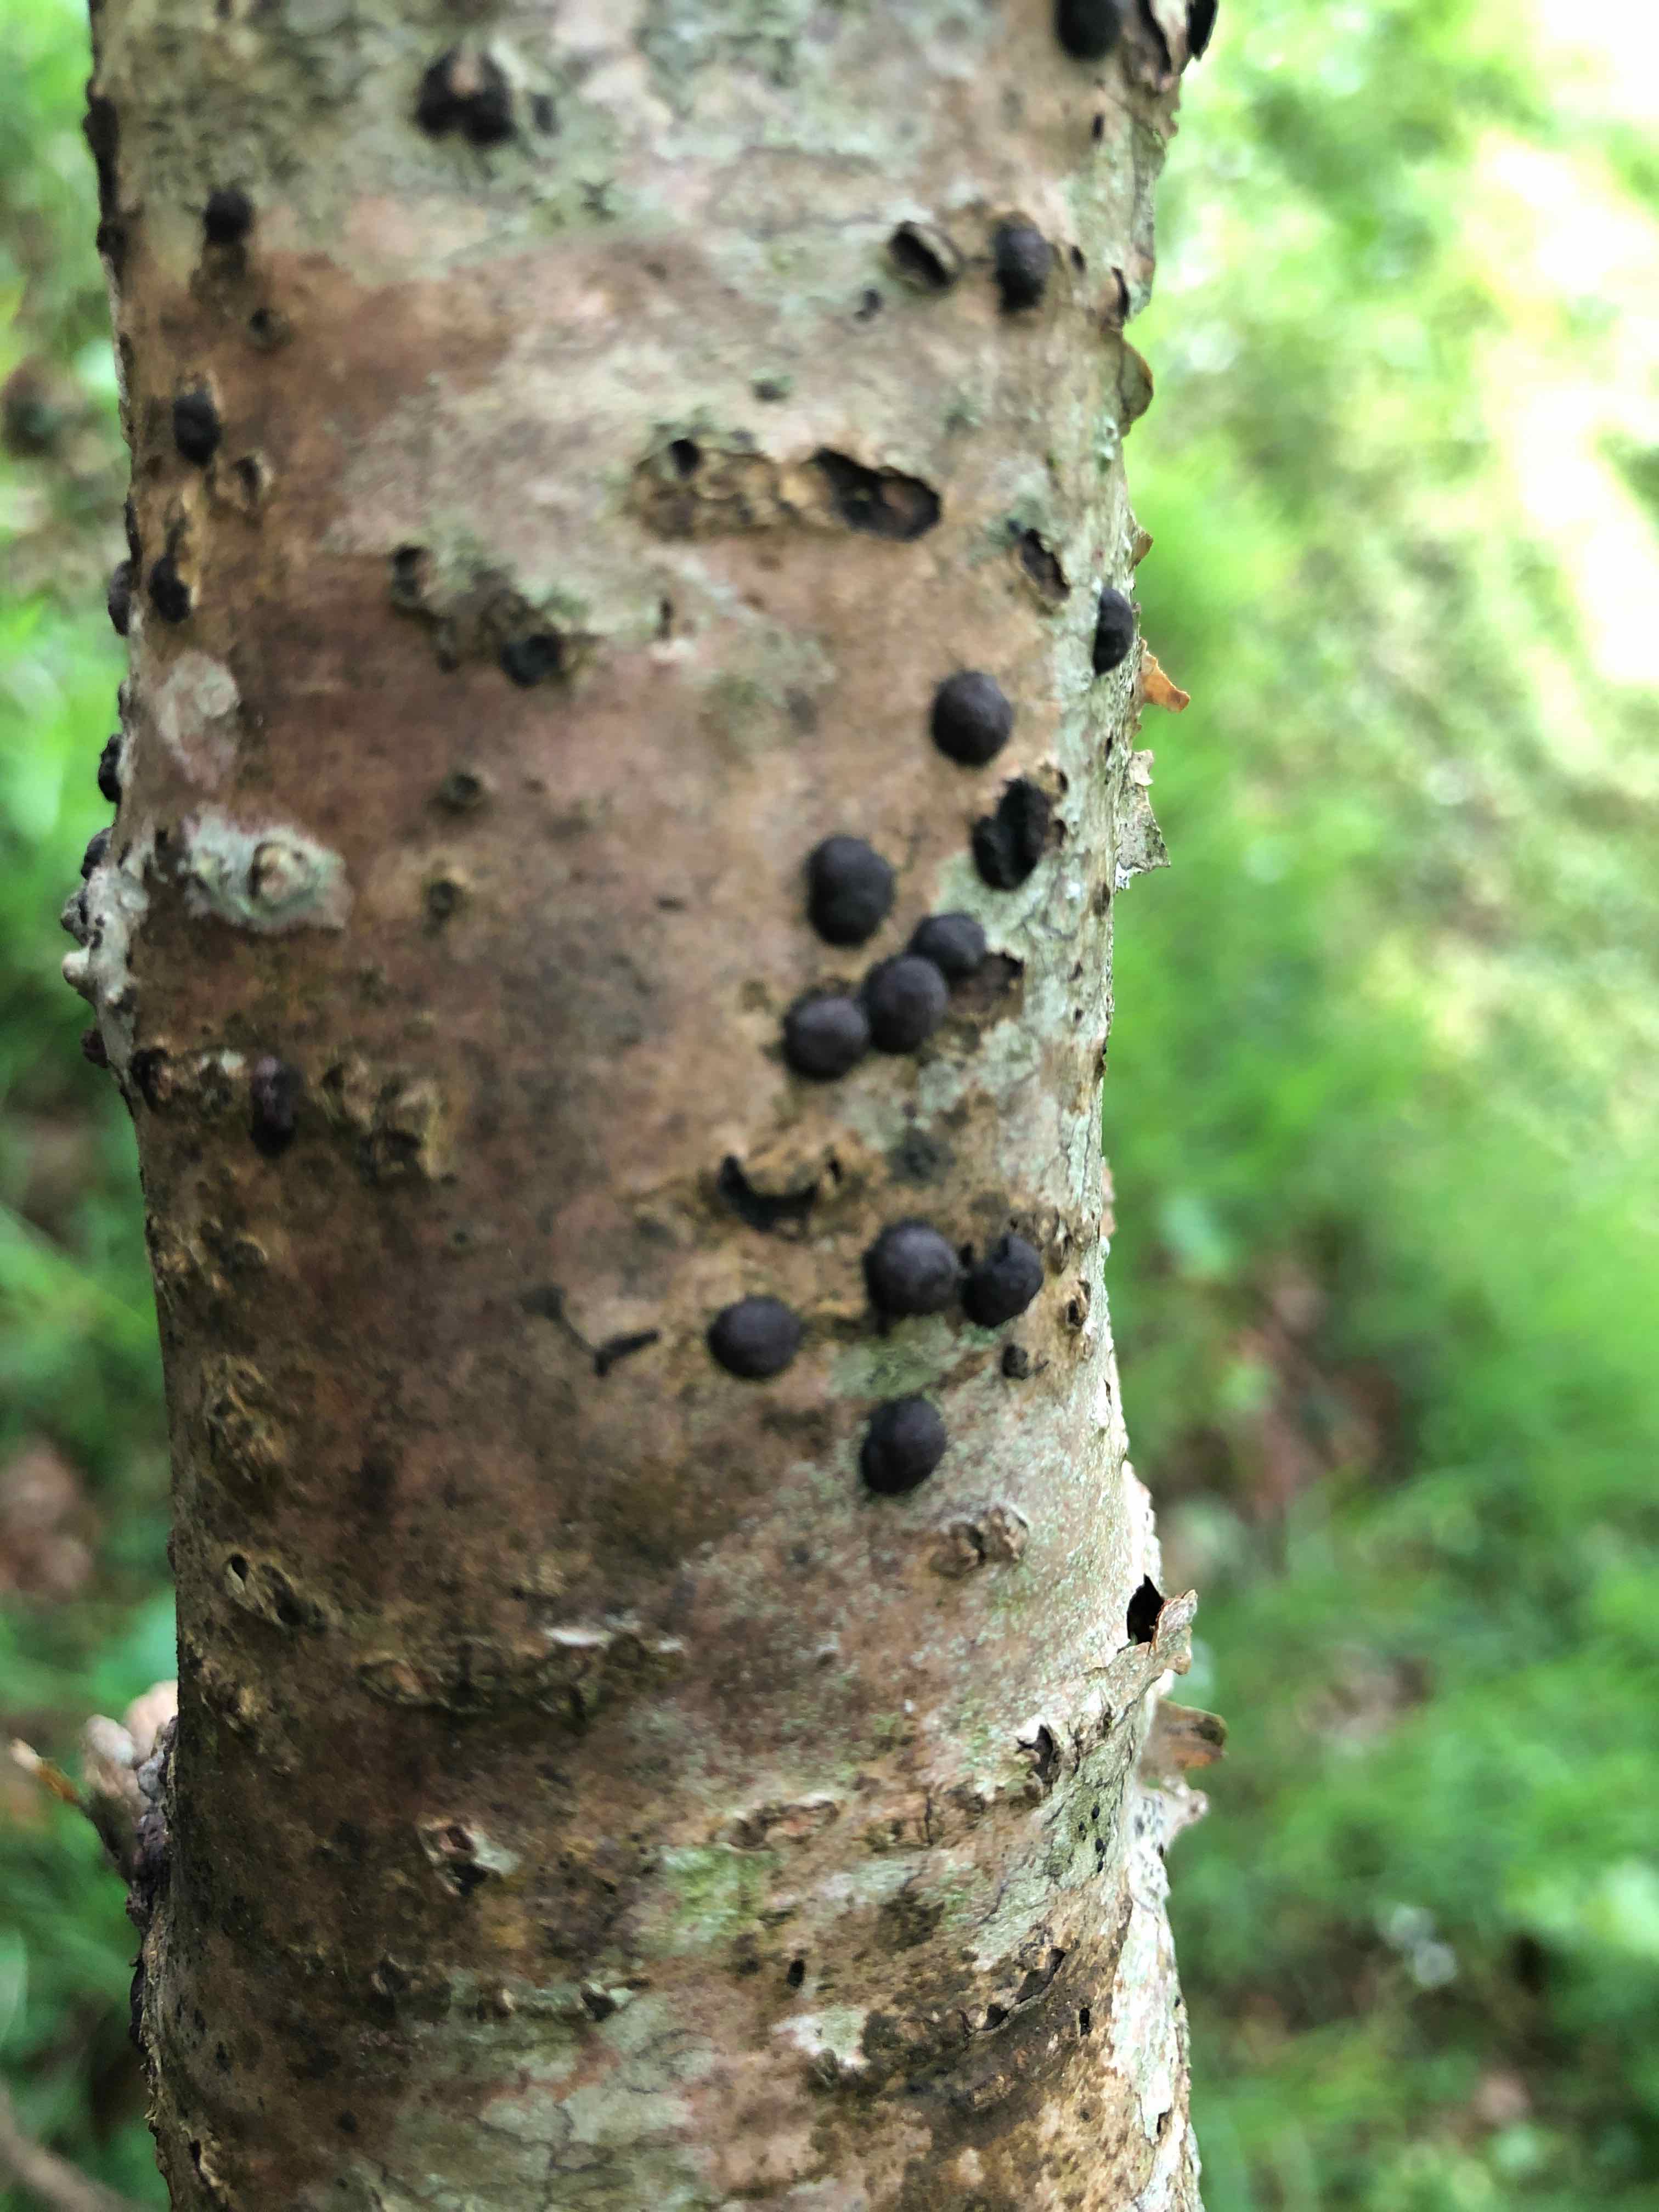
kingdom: Fungi
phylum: Ascomycota
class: Sordariomycetes
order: Xylariales
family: Hypoxylaceae
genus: Hypoxylon
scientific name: Hypoxylon fuscum
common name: kegleformet kulbær
